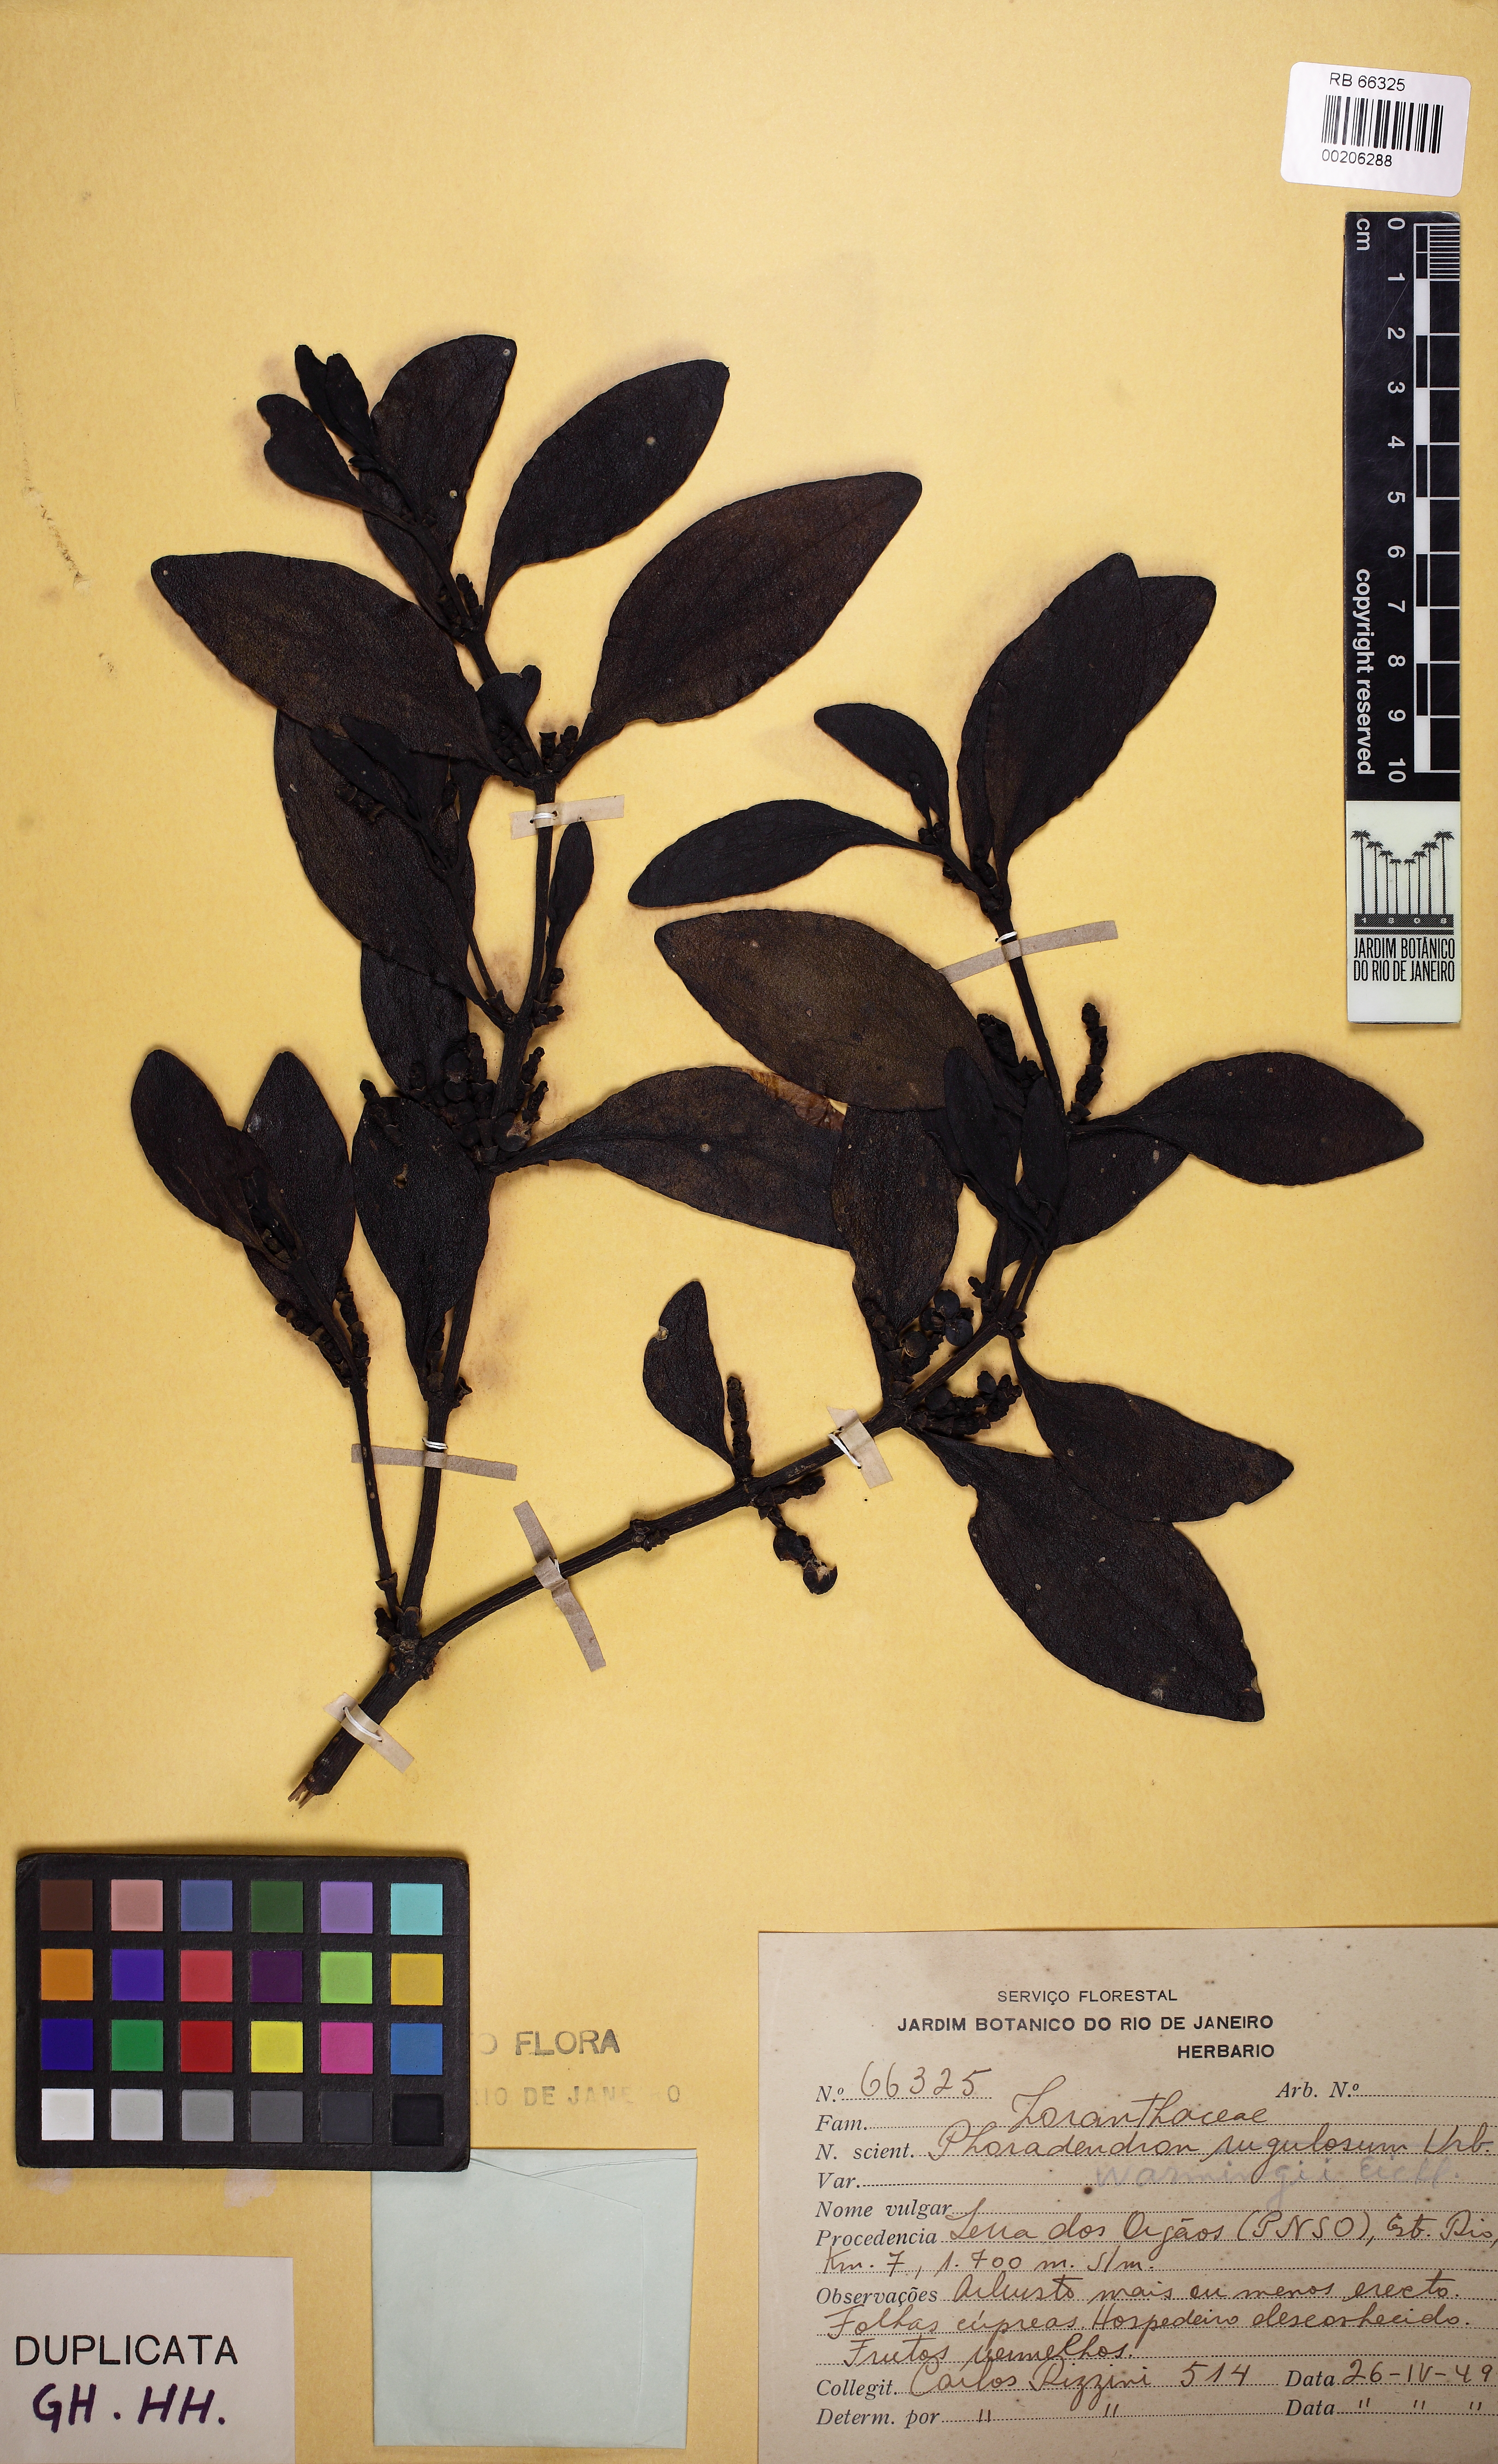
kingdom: Plantae
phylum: Tracheophyta
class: Magnoliopsida
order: Santalales
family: Viscaceae
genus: Dendrophthora
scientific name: Dendrophthora warmingii
